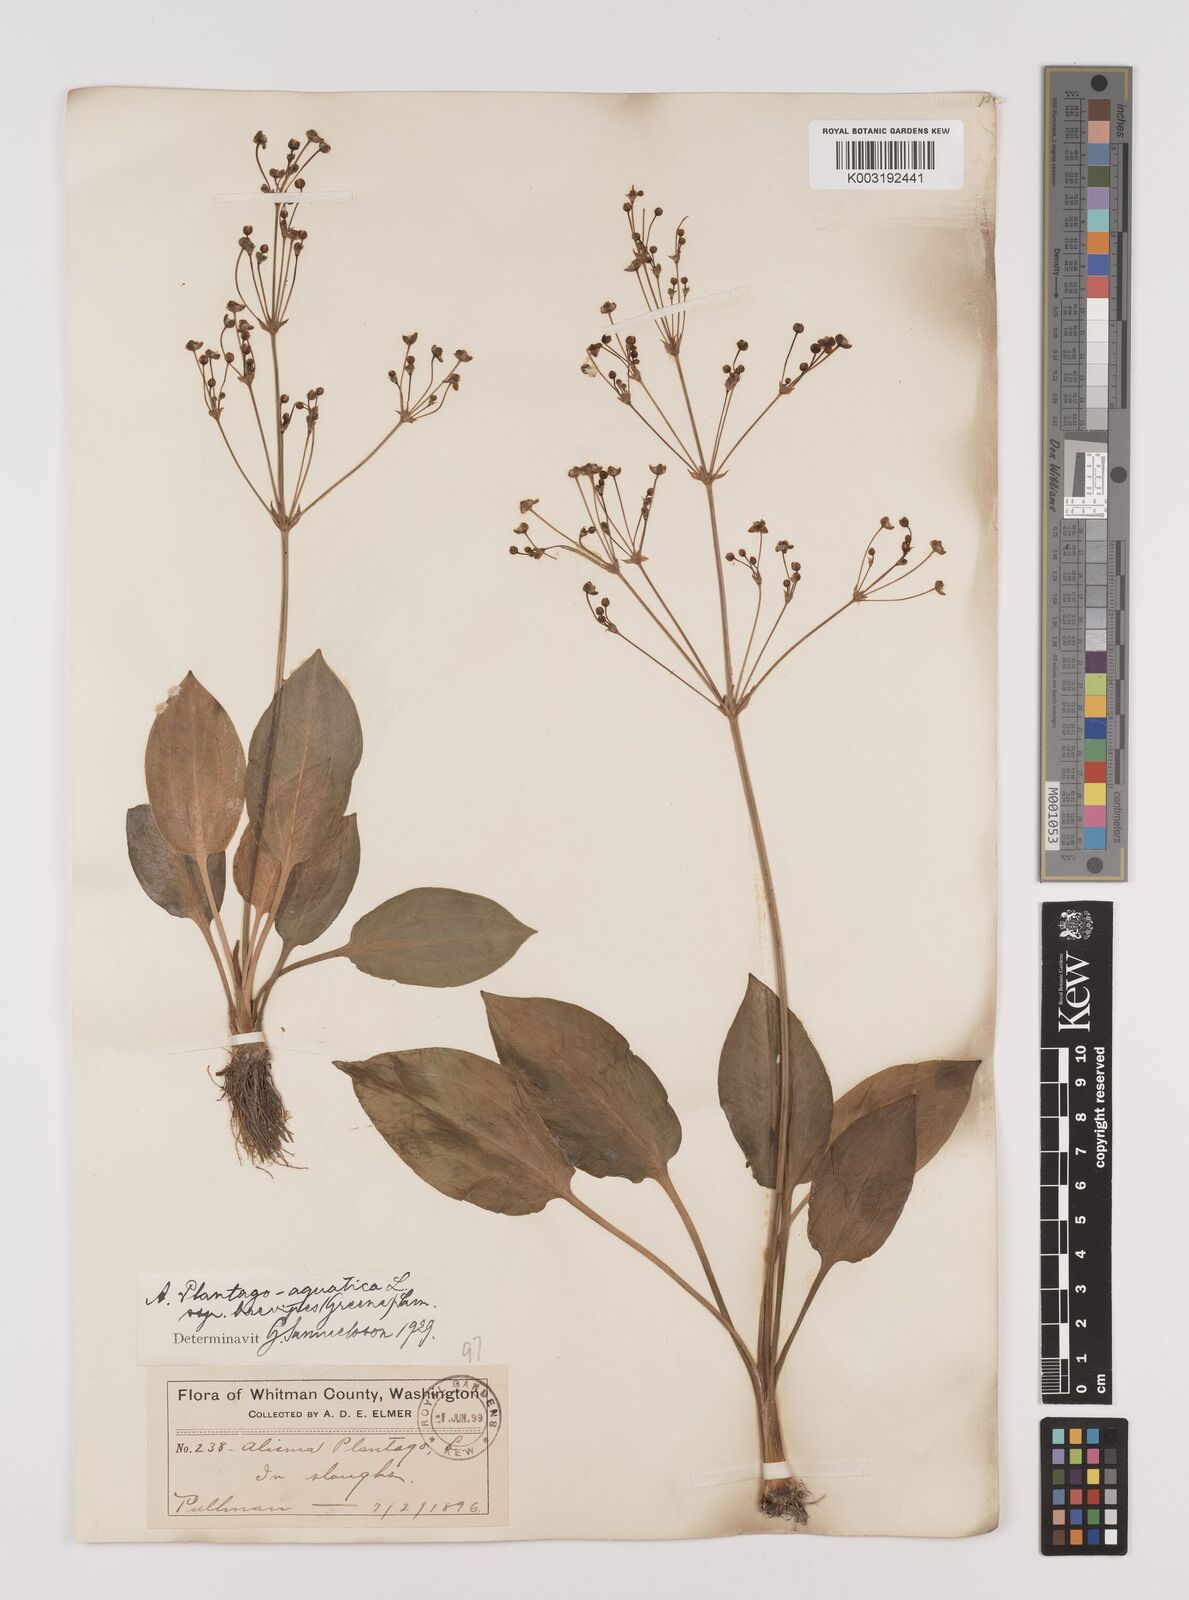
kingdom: Plantae
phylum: Tracheophyta
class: Liliopsida
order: Alismatales
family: Alismataceae
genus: Alisma
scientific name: Alisma triviale
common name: Northern water-plantain
